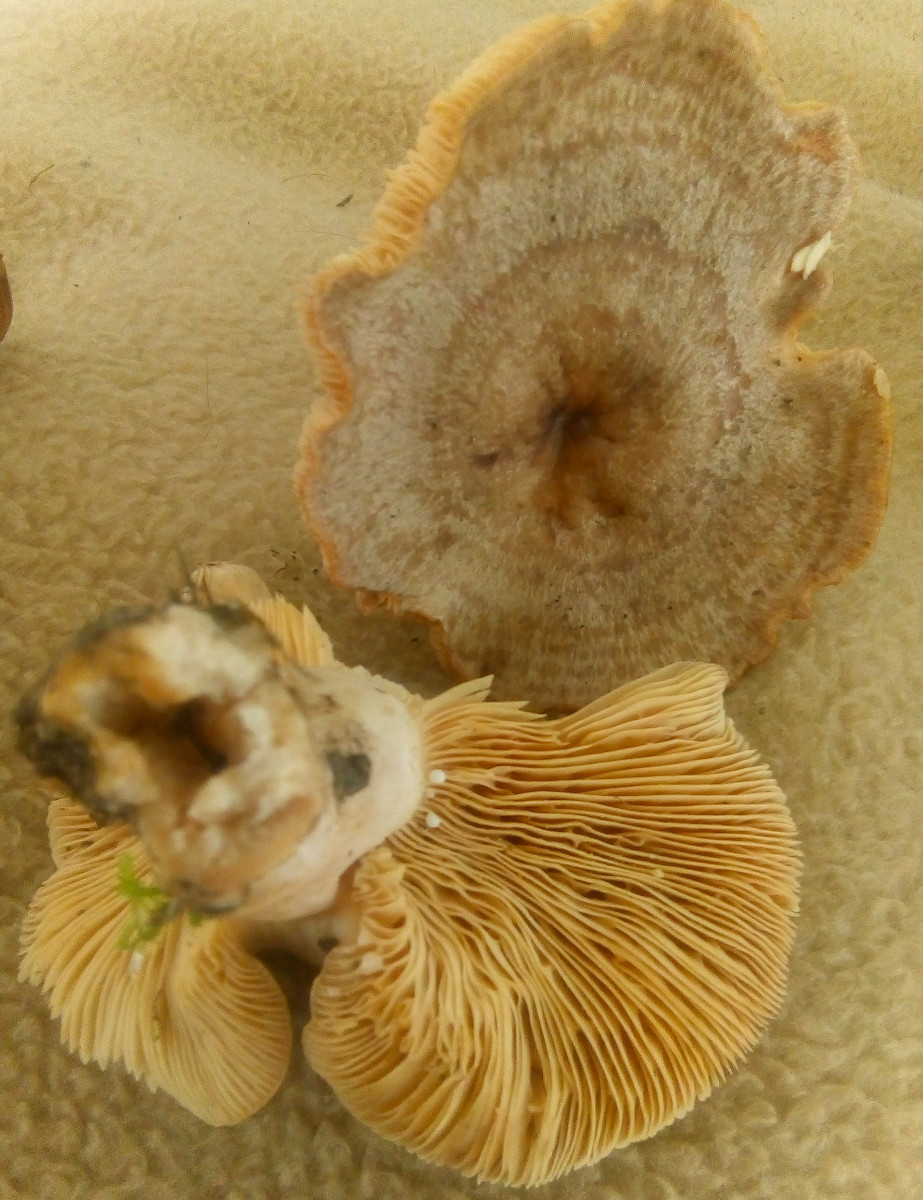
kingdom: Fungi
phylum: Basidiomycota
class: Agaricomycetes
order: Russulales
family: Russulaceae
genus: Lactarius
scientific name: Lactarius circellatus
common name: avnbøg-mælkehat
